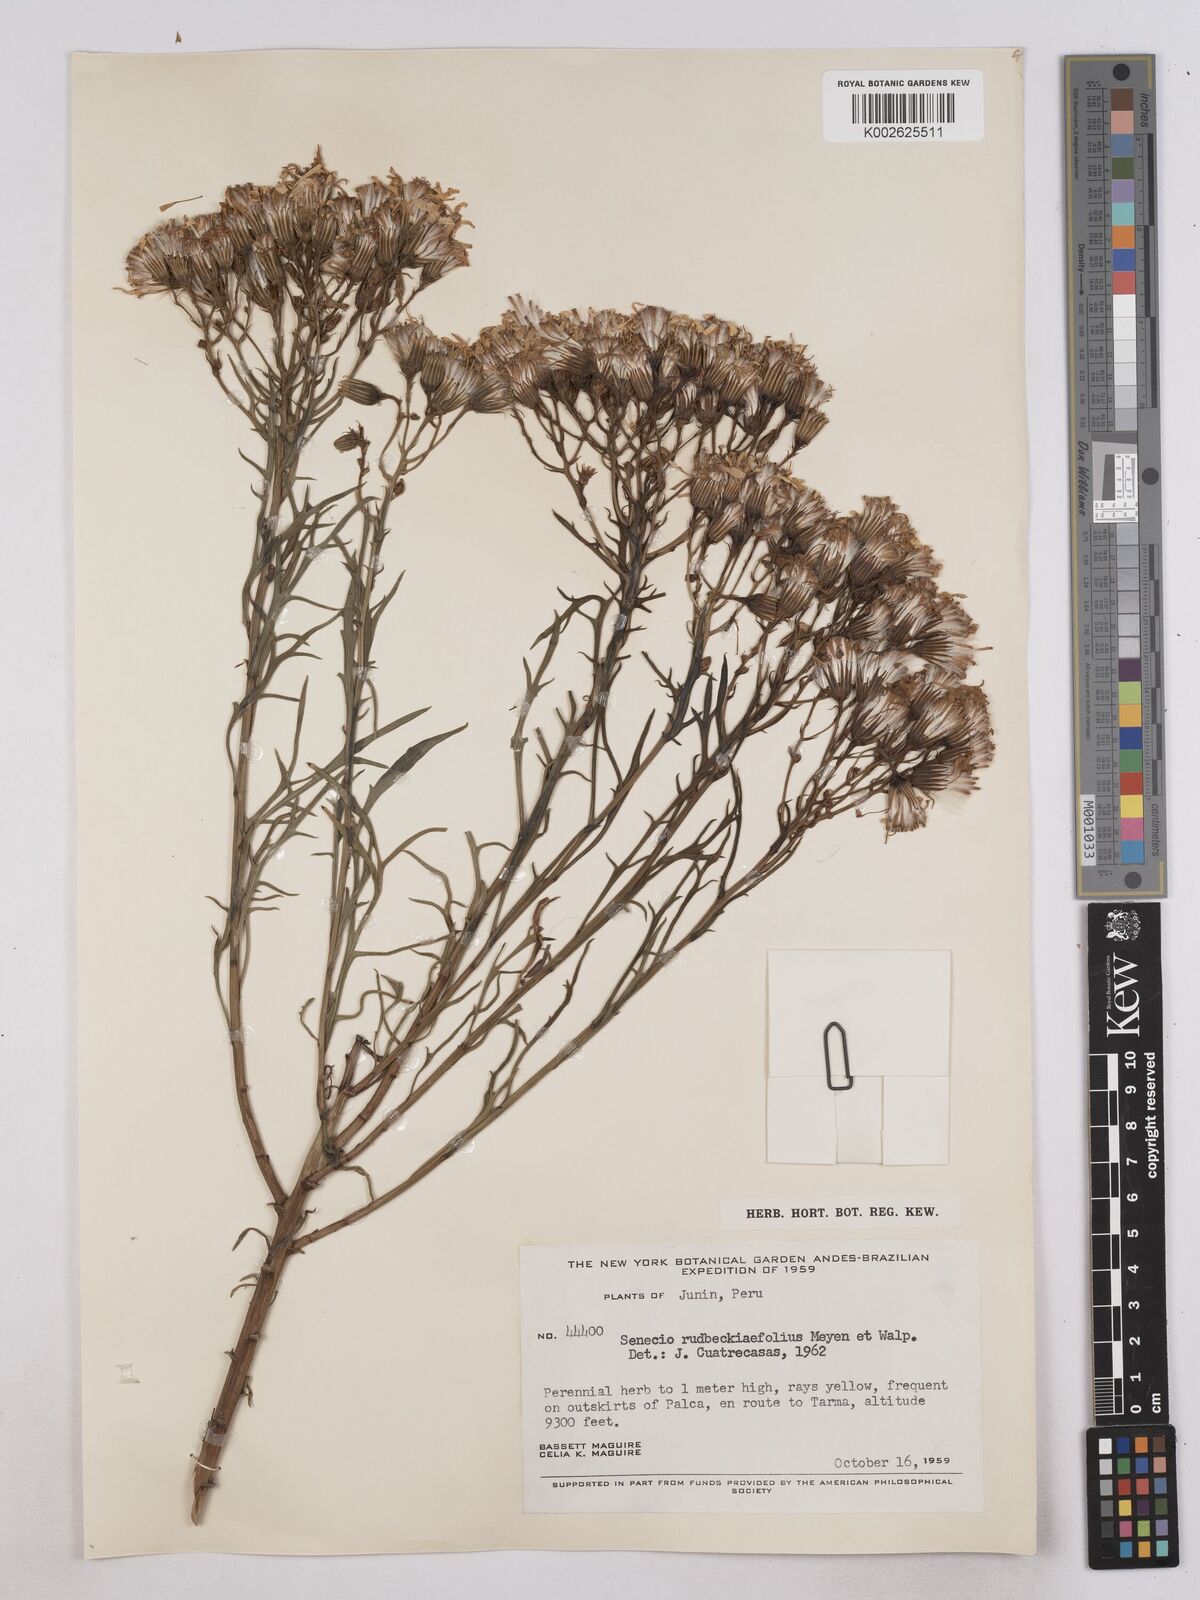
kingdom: Plantae
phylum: Tracheophyta
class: Magnoliopsida
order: Asterales
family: Asteraceae
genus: Senecio
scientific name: Senecio rudbeckiifolius
